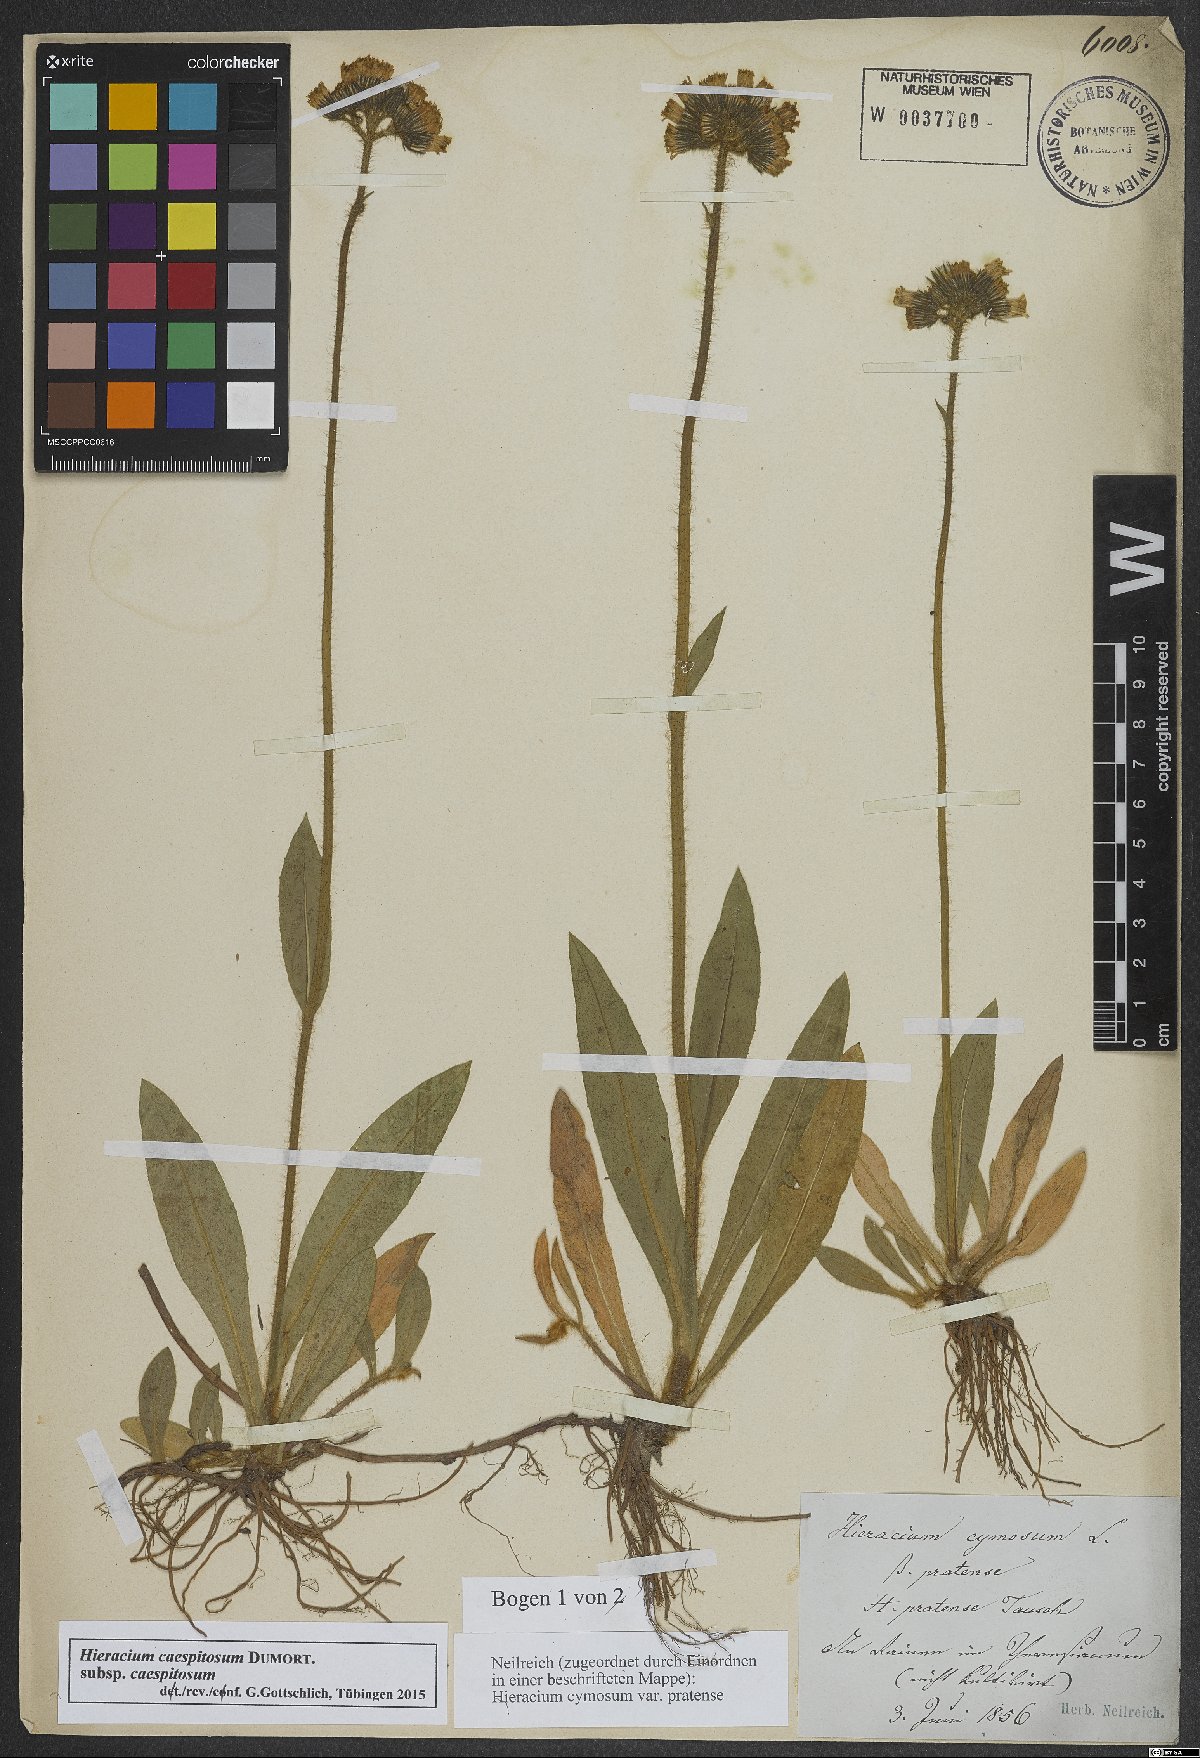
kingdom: Plantae
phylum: Tracheophyta
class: Magnoliopsida
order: Asterales
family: Asteraceae
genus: Pilosella
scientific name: Pilosella caespitosa
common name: Yellow fox-and-cubs
